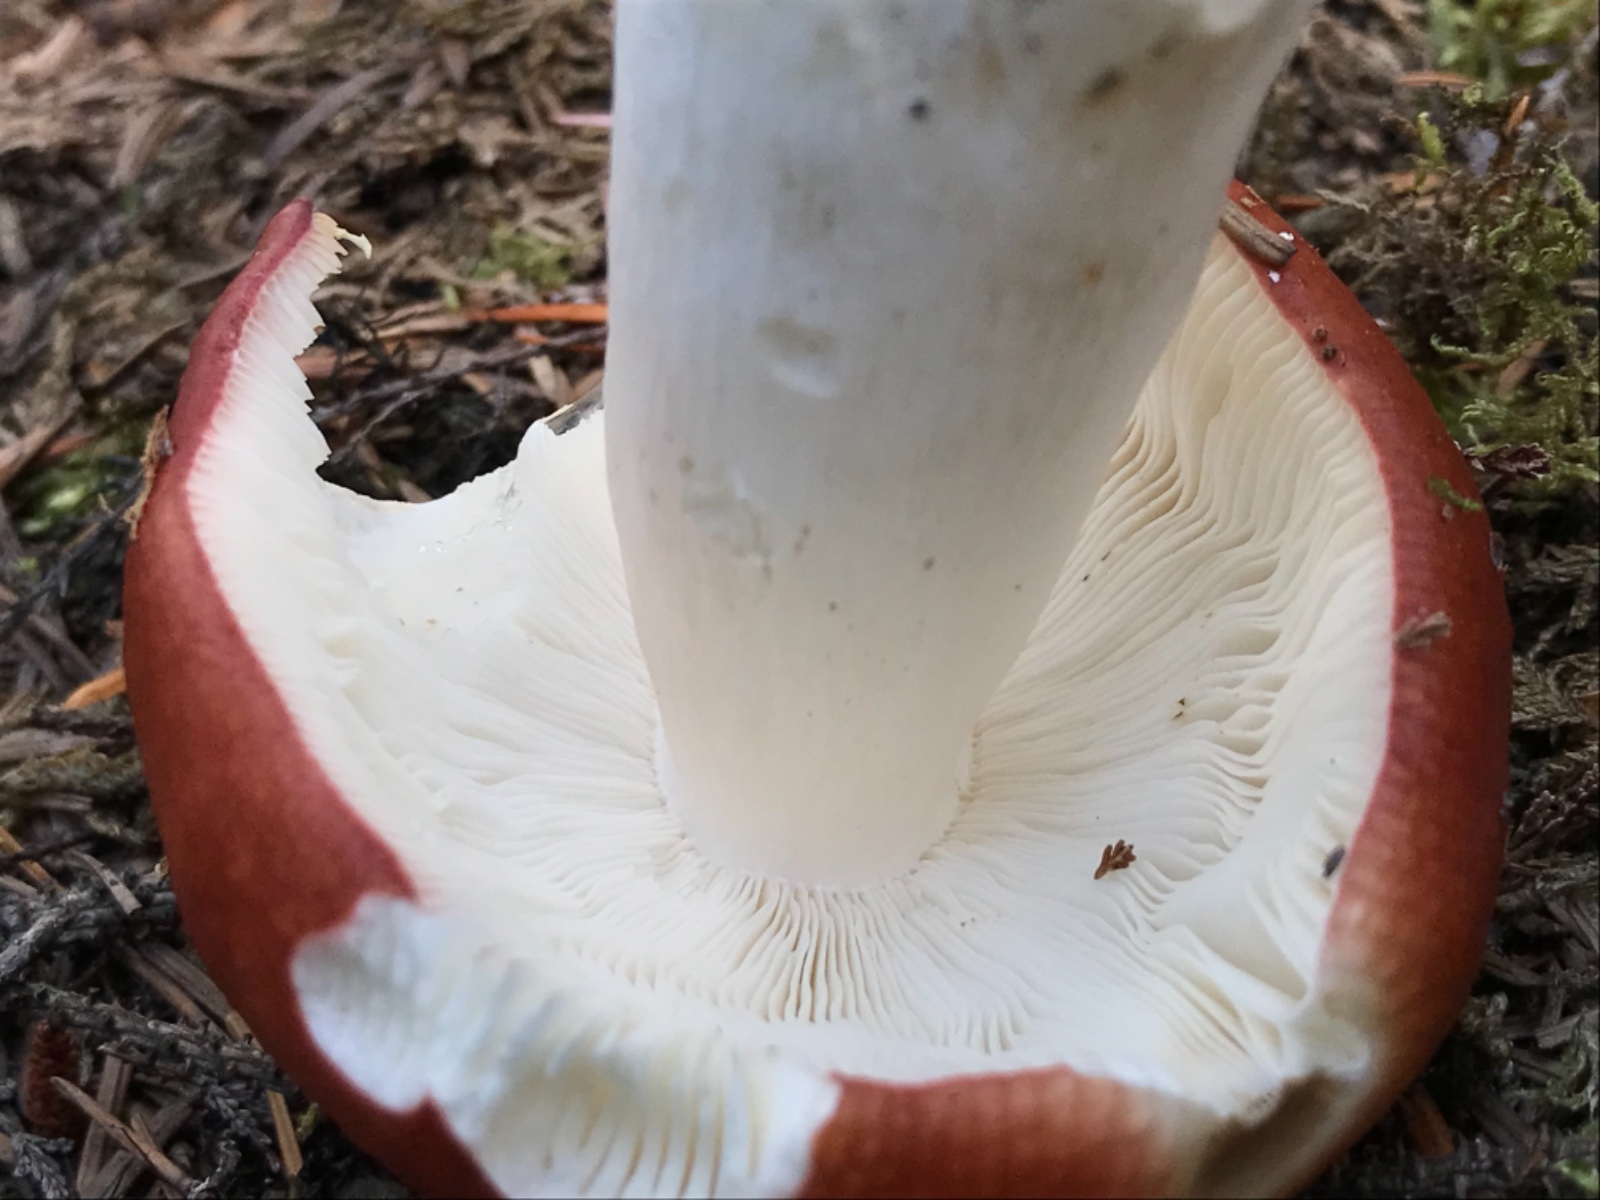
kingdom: Fungi
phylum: Basidiomycota
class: Agaricomycetes
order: Russulales
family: Russulaceae
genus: Russula
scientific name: Russula paludosa
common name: prægtig skørhat
